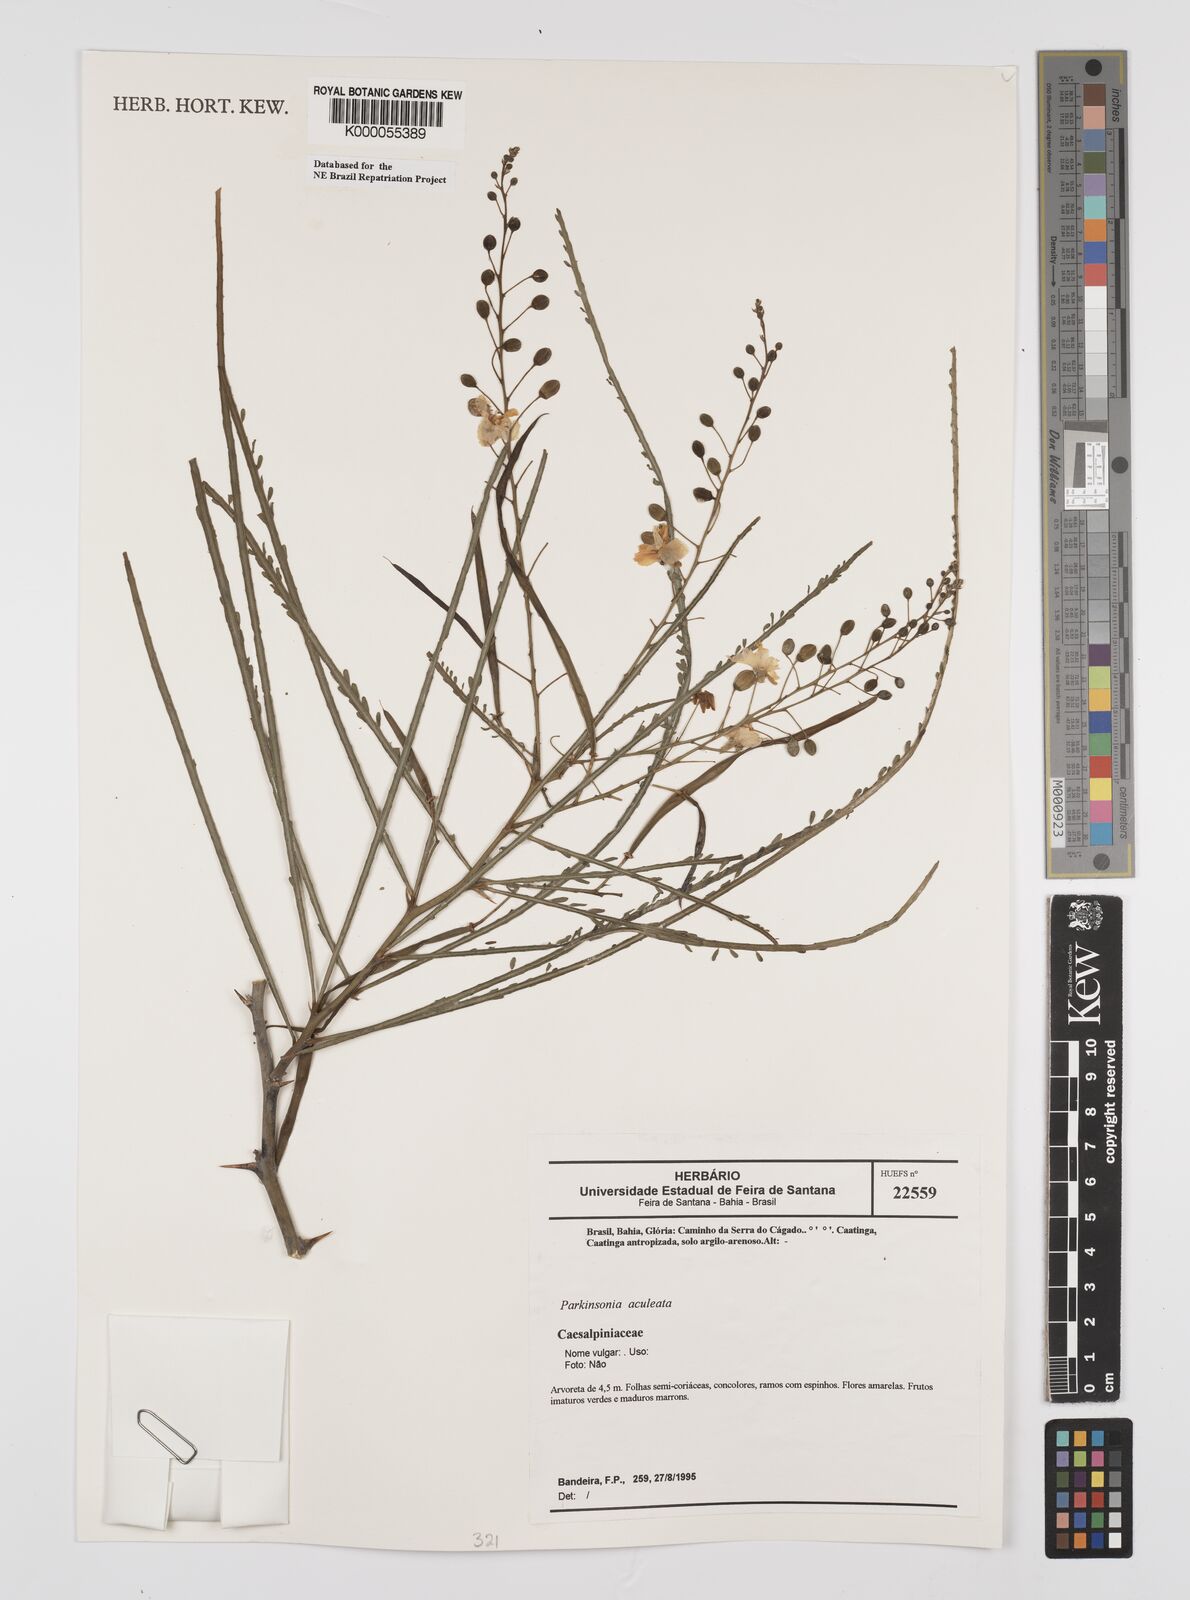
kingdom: Plantae
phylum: Tracheophyta
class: Magnoliopsida
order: Fabales
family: Fabaceae
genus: Parkinsonia
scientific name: Parkinsonia aculeata
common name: Jerusalem thorn
